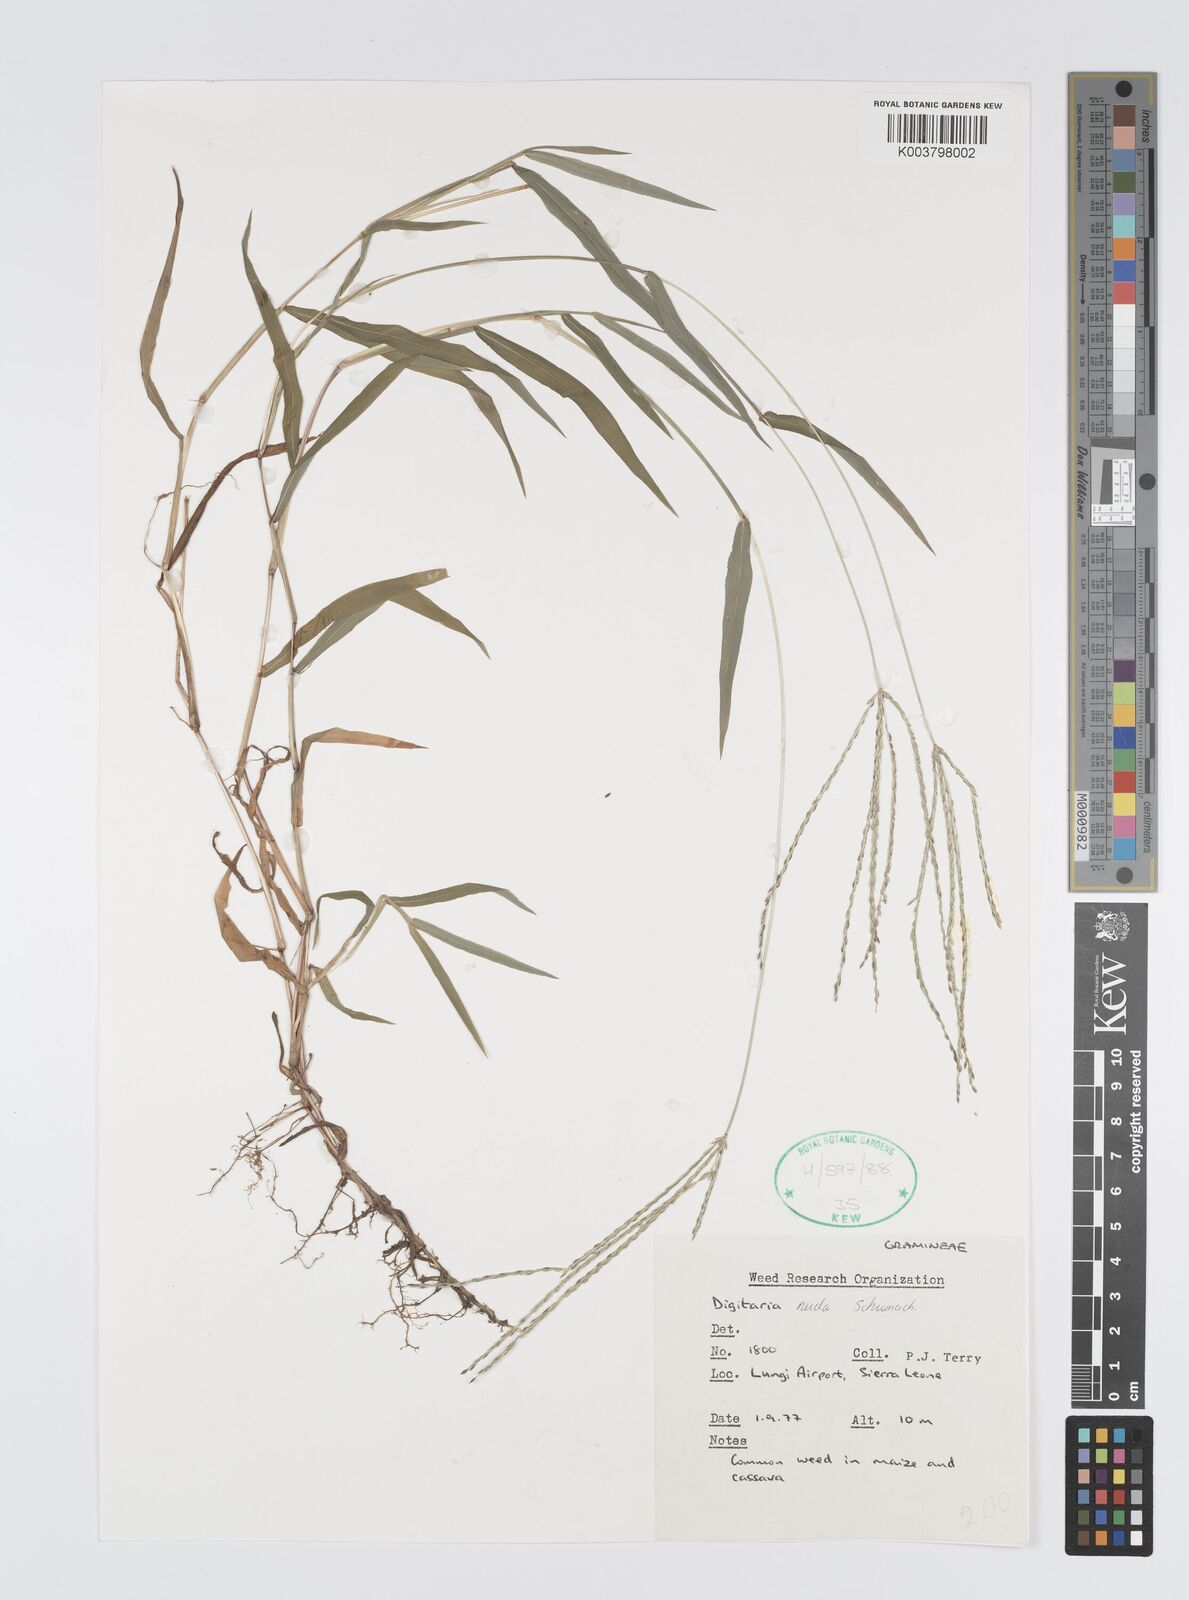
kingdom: Plantae
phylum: Tracheophyta
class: Liliopsida
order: Poales
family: Poaceae
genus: Digitaria
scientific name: Digitaria nuda
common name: Naked crabgrass
